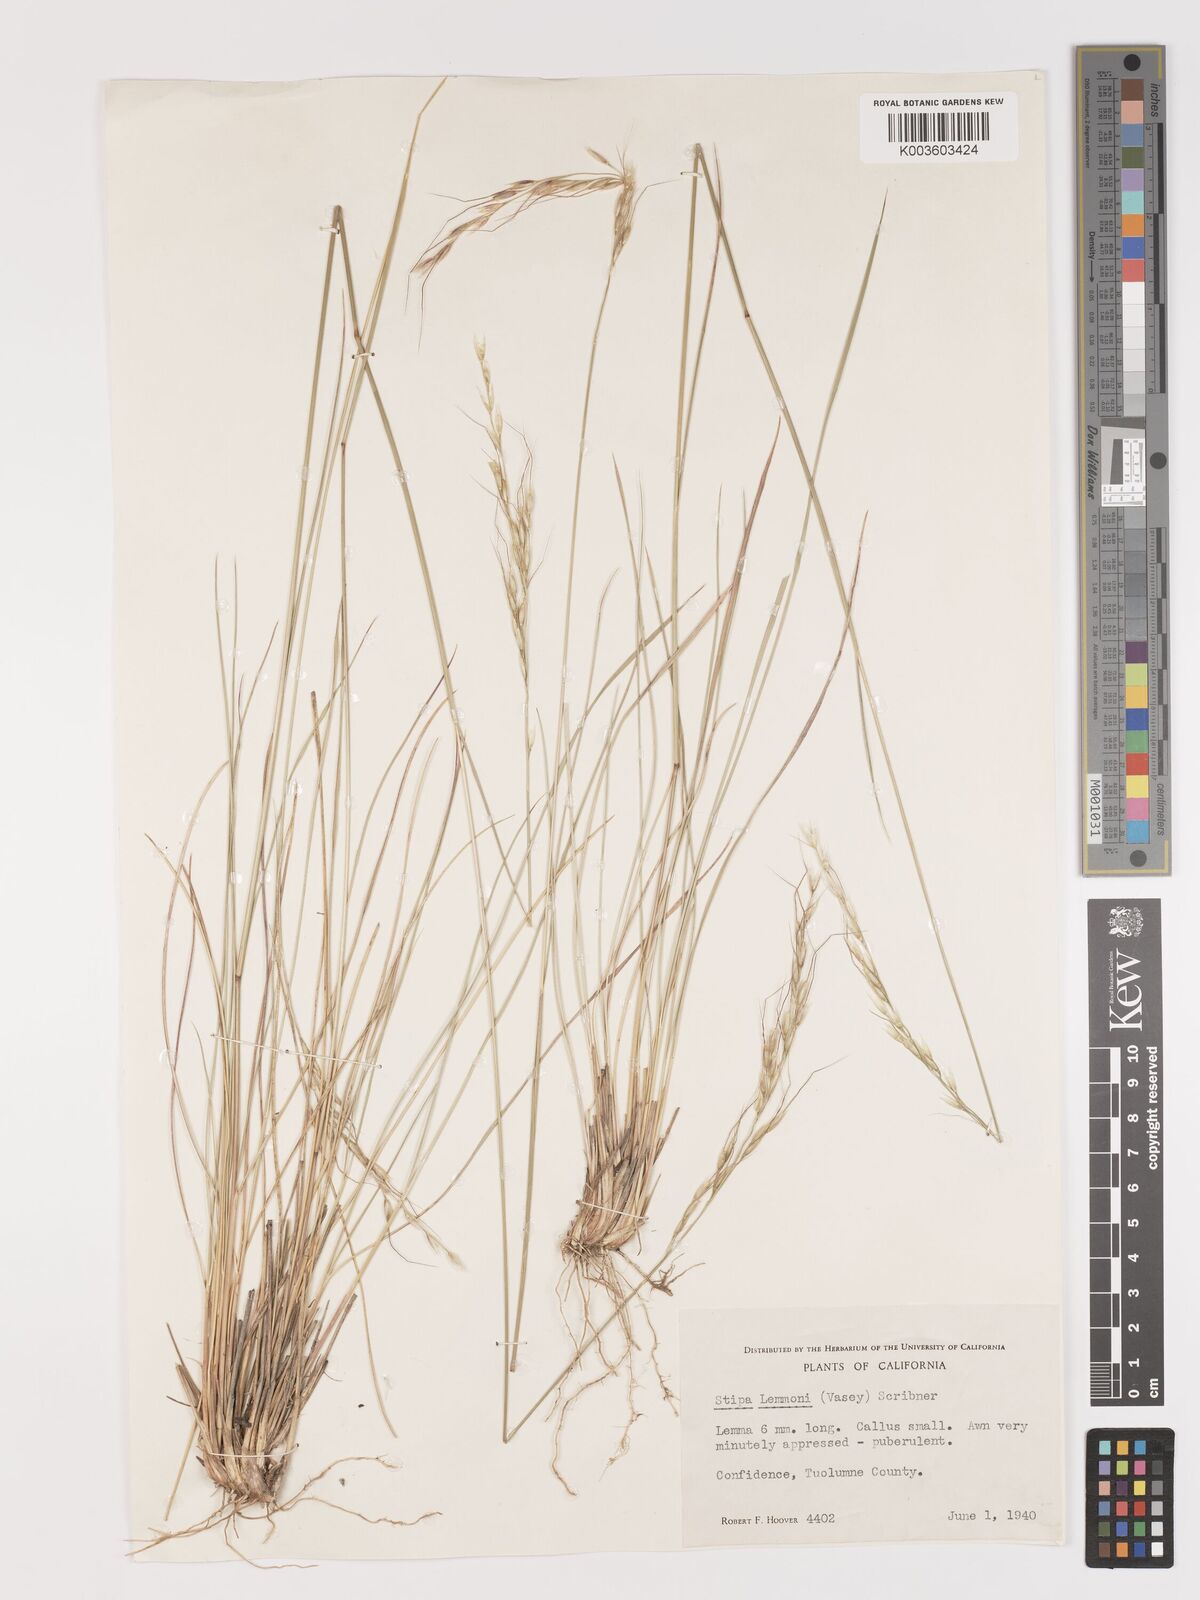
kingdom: Plantae
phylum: Tracheophyta
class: Liliopsida
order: Poales
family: Poaceae
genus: Eriocoma
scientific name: Eriocoma lemmonii
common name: Lemmon's needlegrass
